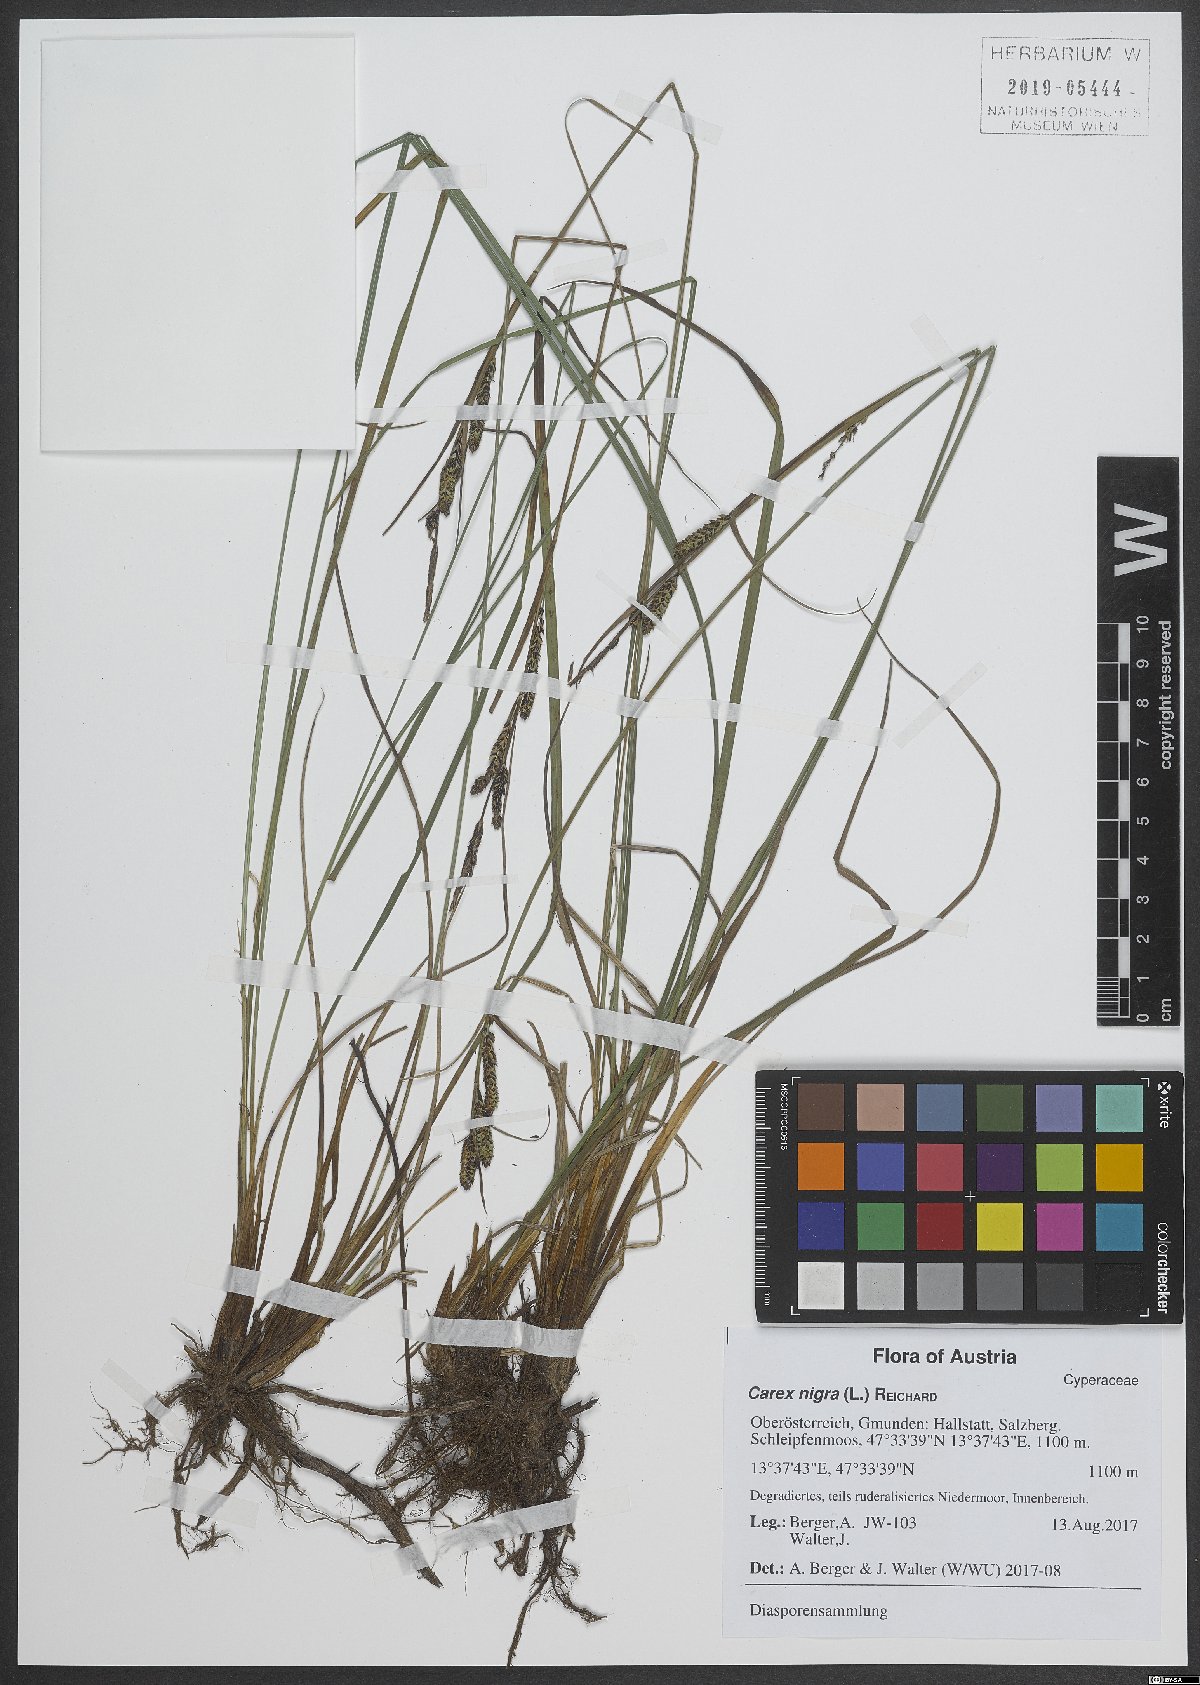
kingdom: Plantae
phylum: Tracheophyta
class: Liliopsida
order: Poales
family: Cyperaceae
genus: Carex
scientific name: Carex nigra
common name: Common sedge
